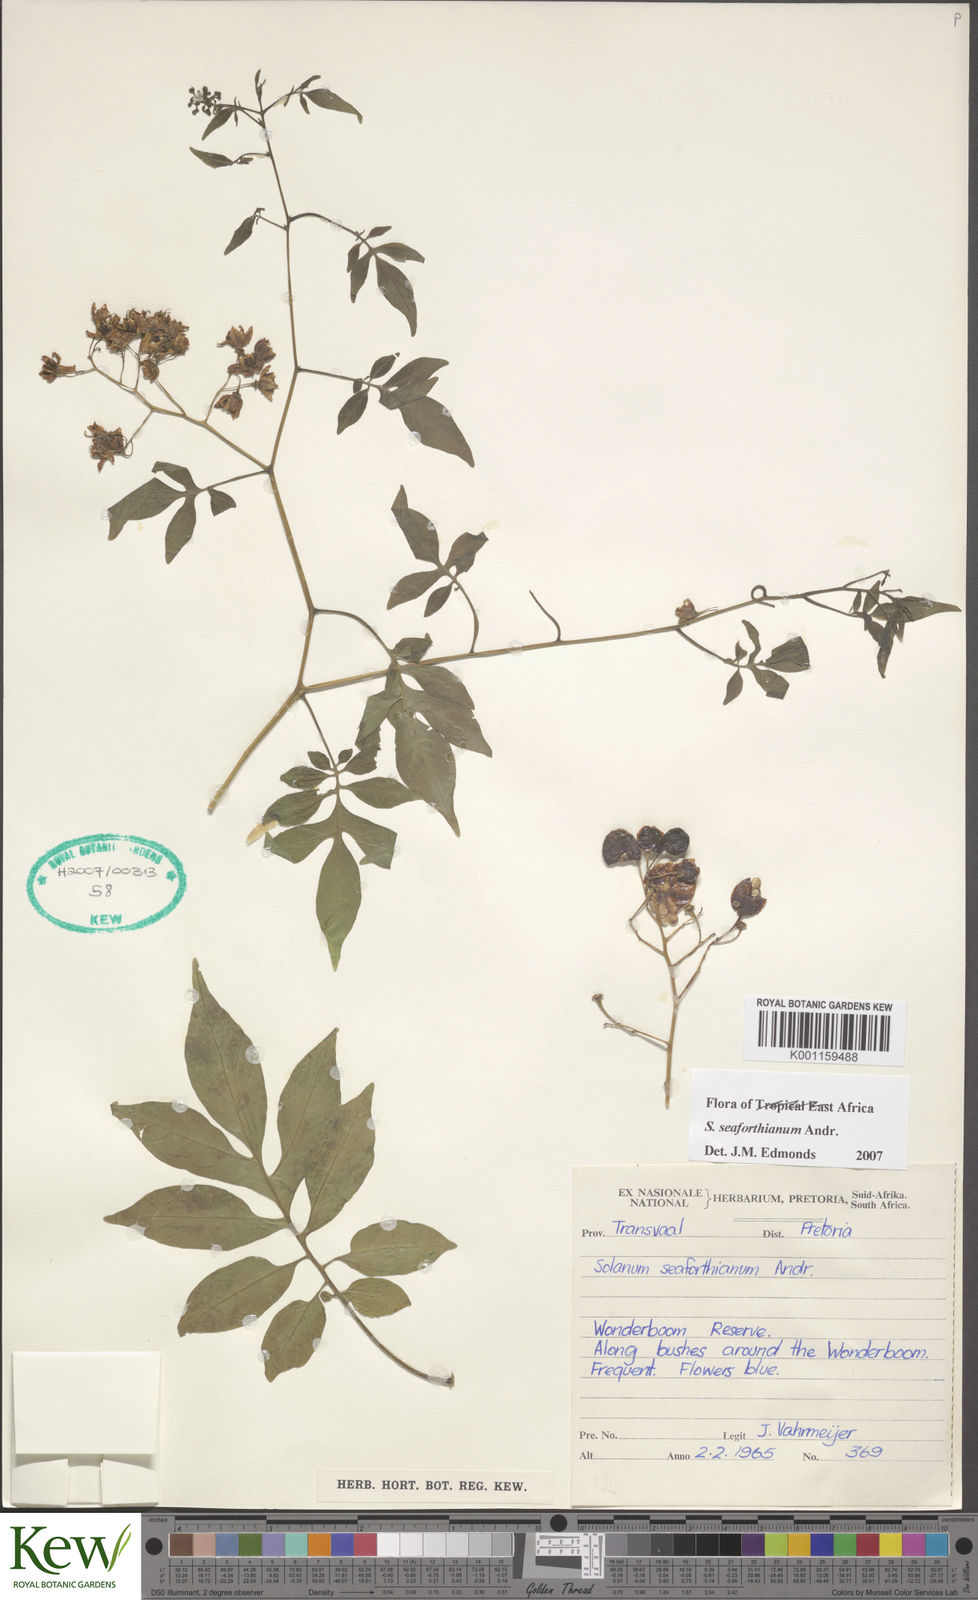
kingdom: Plantae
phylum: Tracheophyta
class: Magnoliopsida
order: Solanales
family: Solanaceae
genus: Solanum
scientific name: Solanum seaforthianum
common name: Brazilian nightshade
